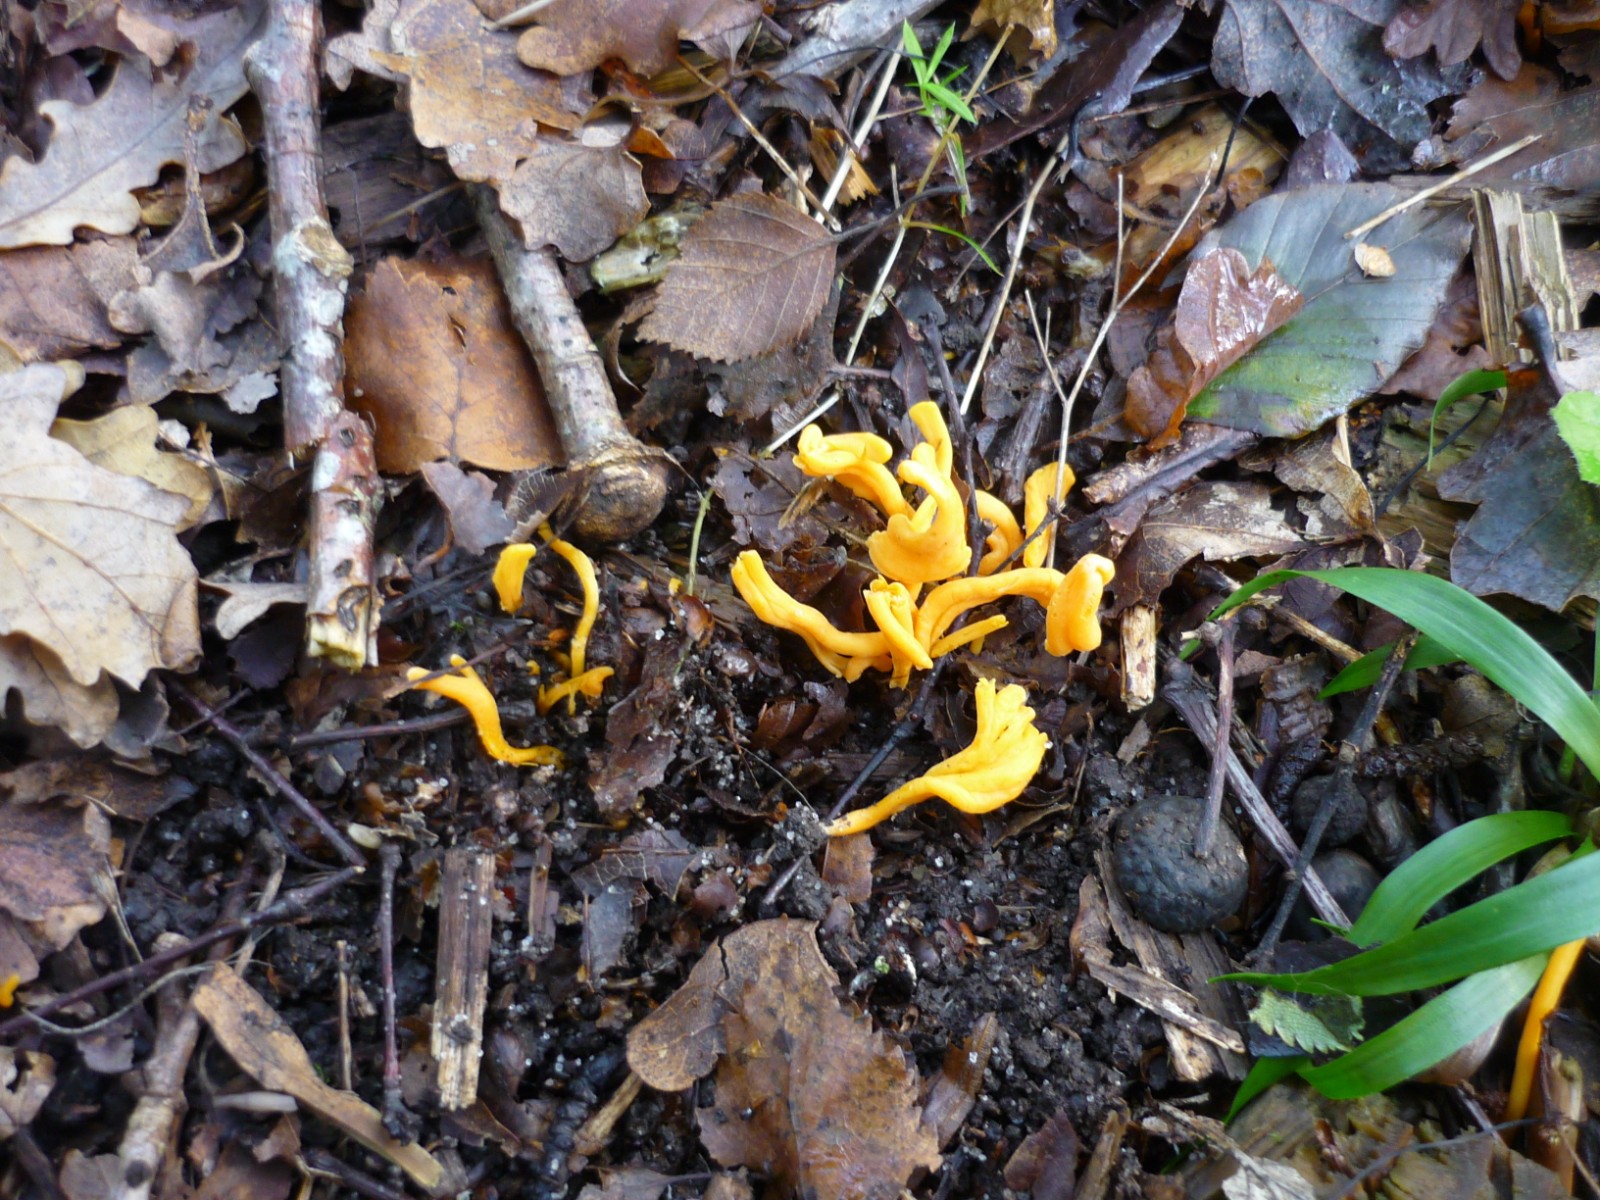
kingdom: Fungi
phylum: Basidiomycota
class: Agaricomycetes
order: Agaricales
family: Clavariaceae
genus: Clavulinopsis
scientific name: Clavulinopsis
